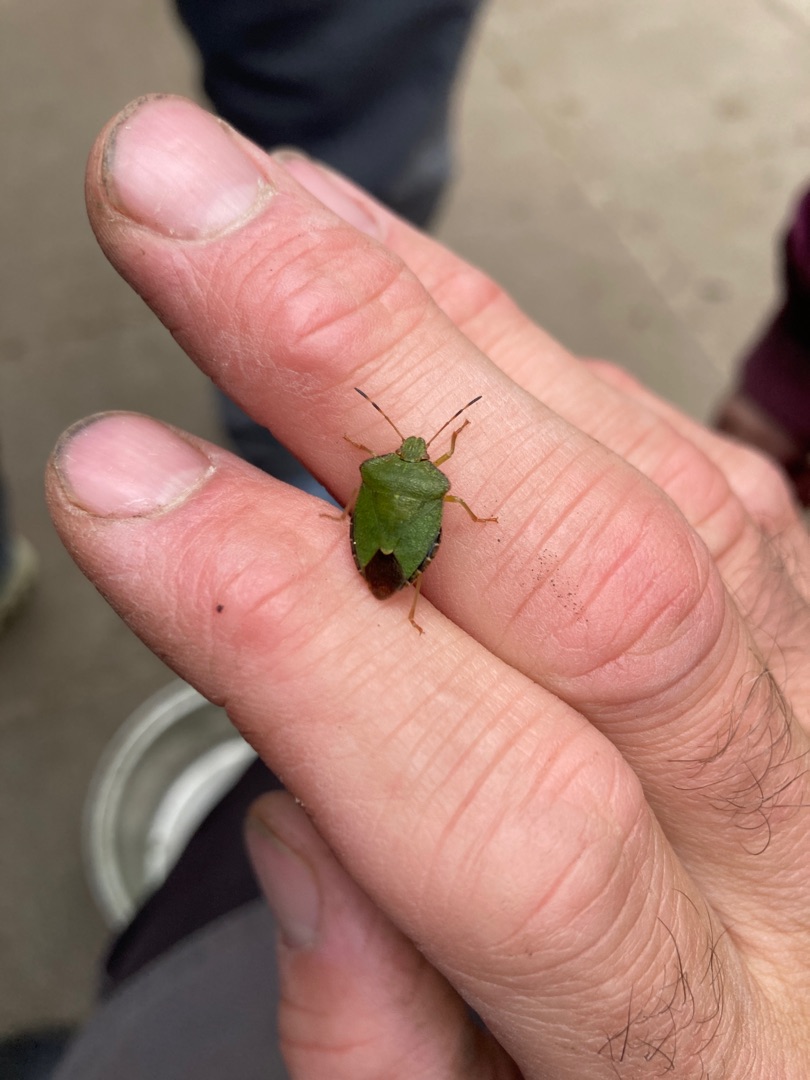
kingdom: Animalia
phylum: Arthropoda
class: Insecta
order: Hemiptera
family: Pentatomidae
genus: Palomena
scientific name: Palomena prasina
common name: Grøn bredtæge
